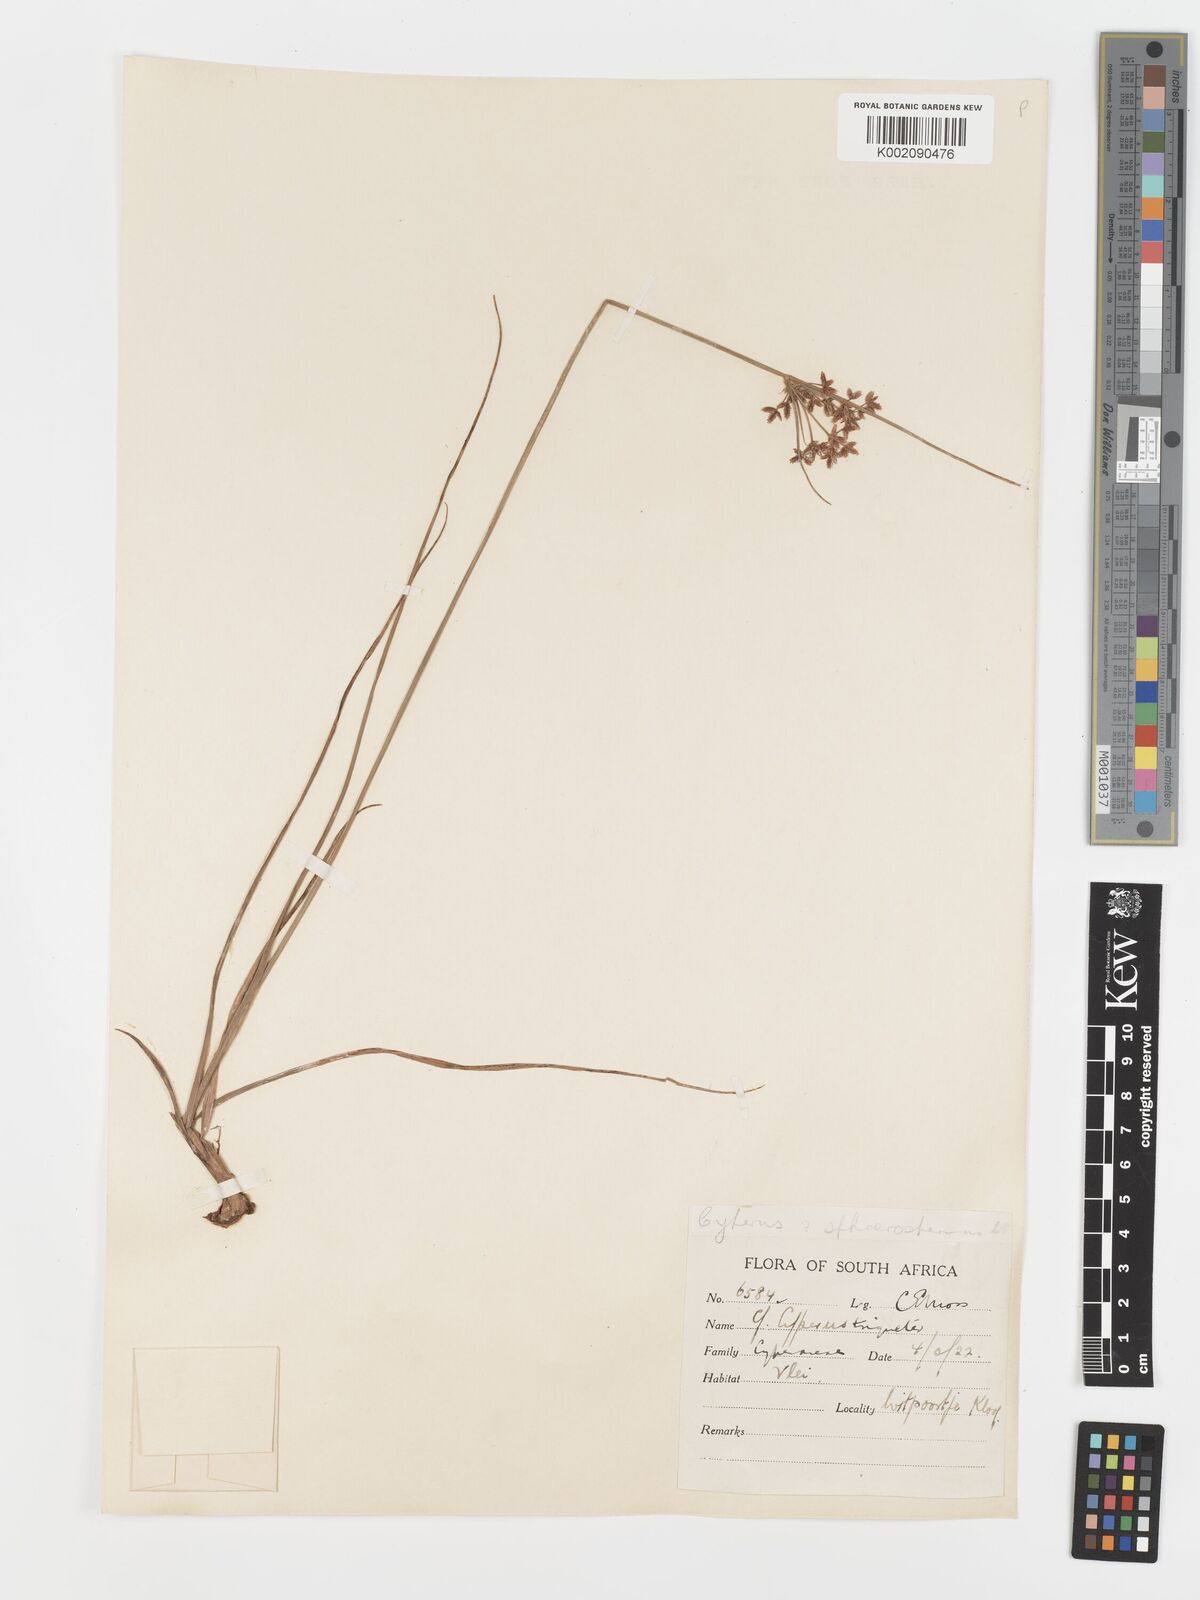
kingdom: Plantae
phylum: Tracheophyta
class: Liliopsida
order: Poales
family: Cyperaceae
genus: Cyperus
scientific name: Cyperus sphaerospermus
